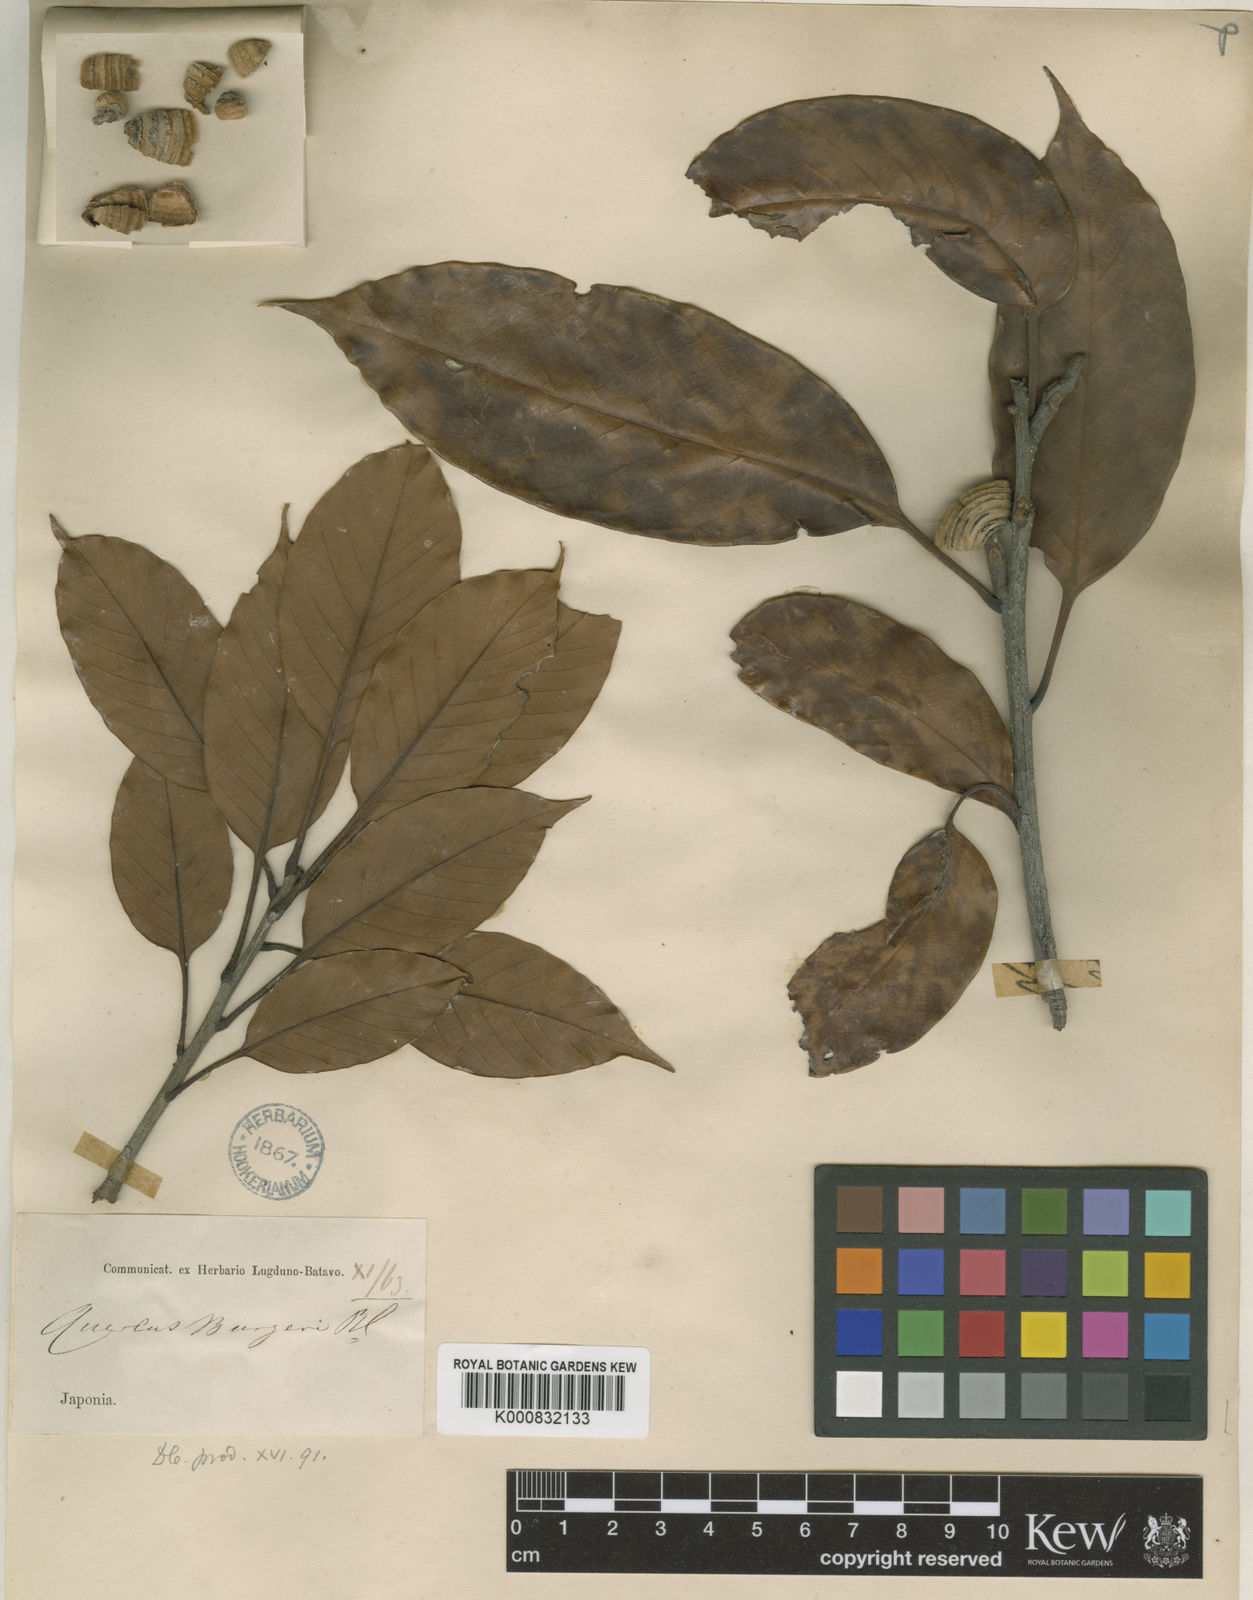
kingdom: Plantae
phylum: Tracheophyta
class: Magnoliopsida
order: Fagales
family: Fagaceae
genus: Quercus
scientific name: Quercus acuta
